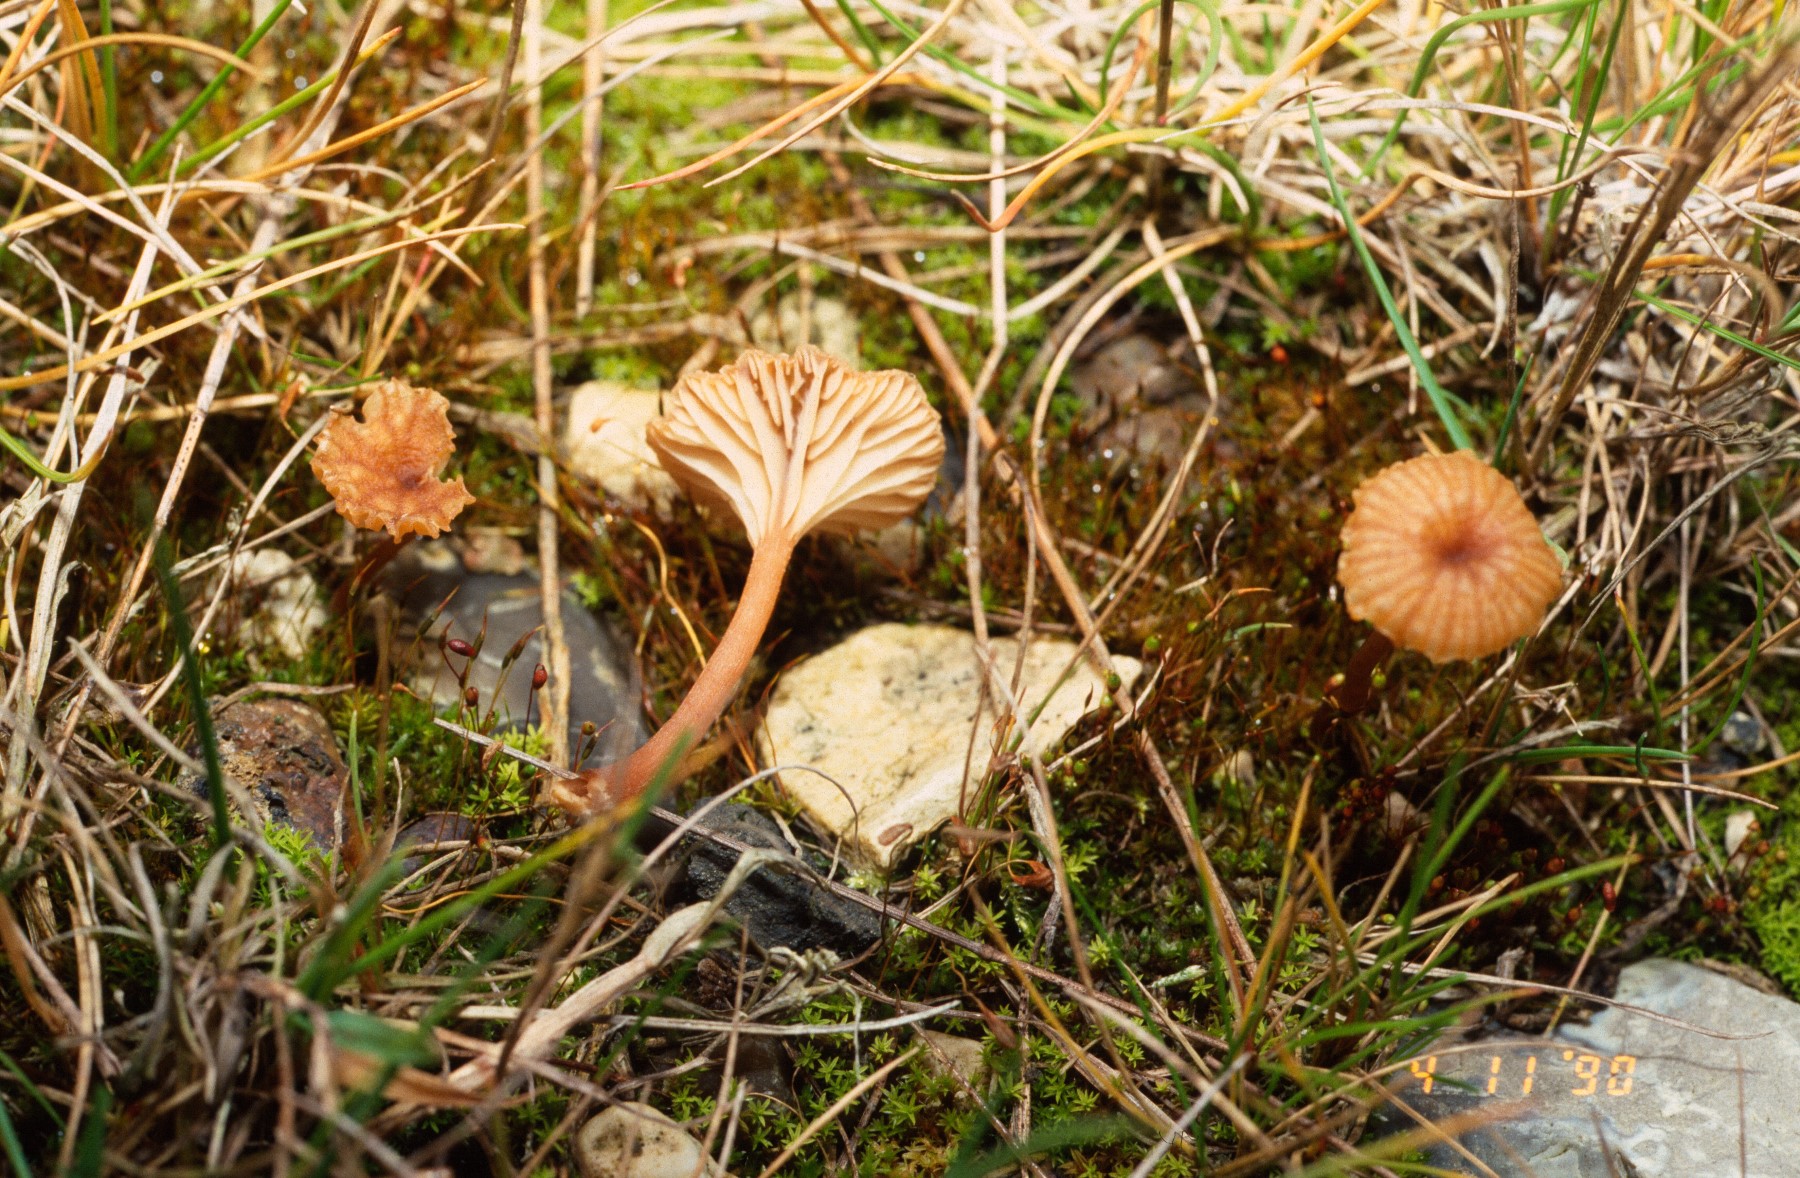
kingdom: Fungi
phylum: Basidiomycota
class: Agaricomycetes
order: Agaricales
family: Tricholomataceae
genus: Omphalina
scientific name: Omphalina pyxidata
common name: rødbrun navlehat
